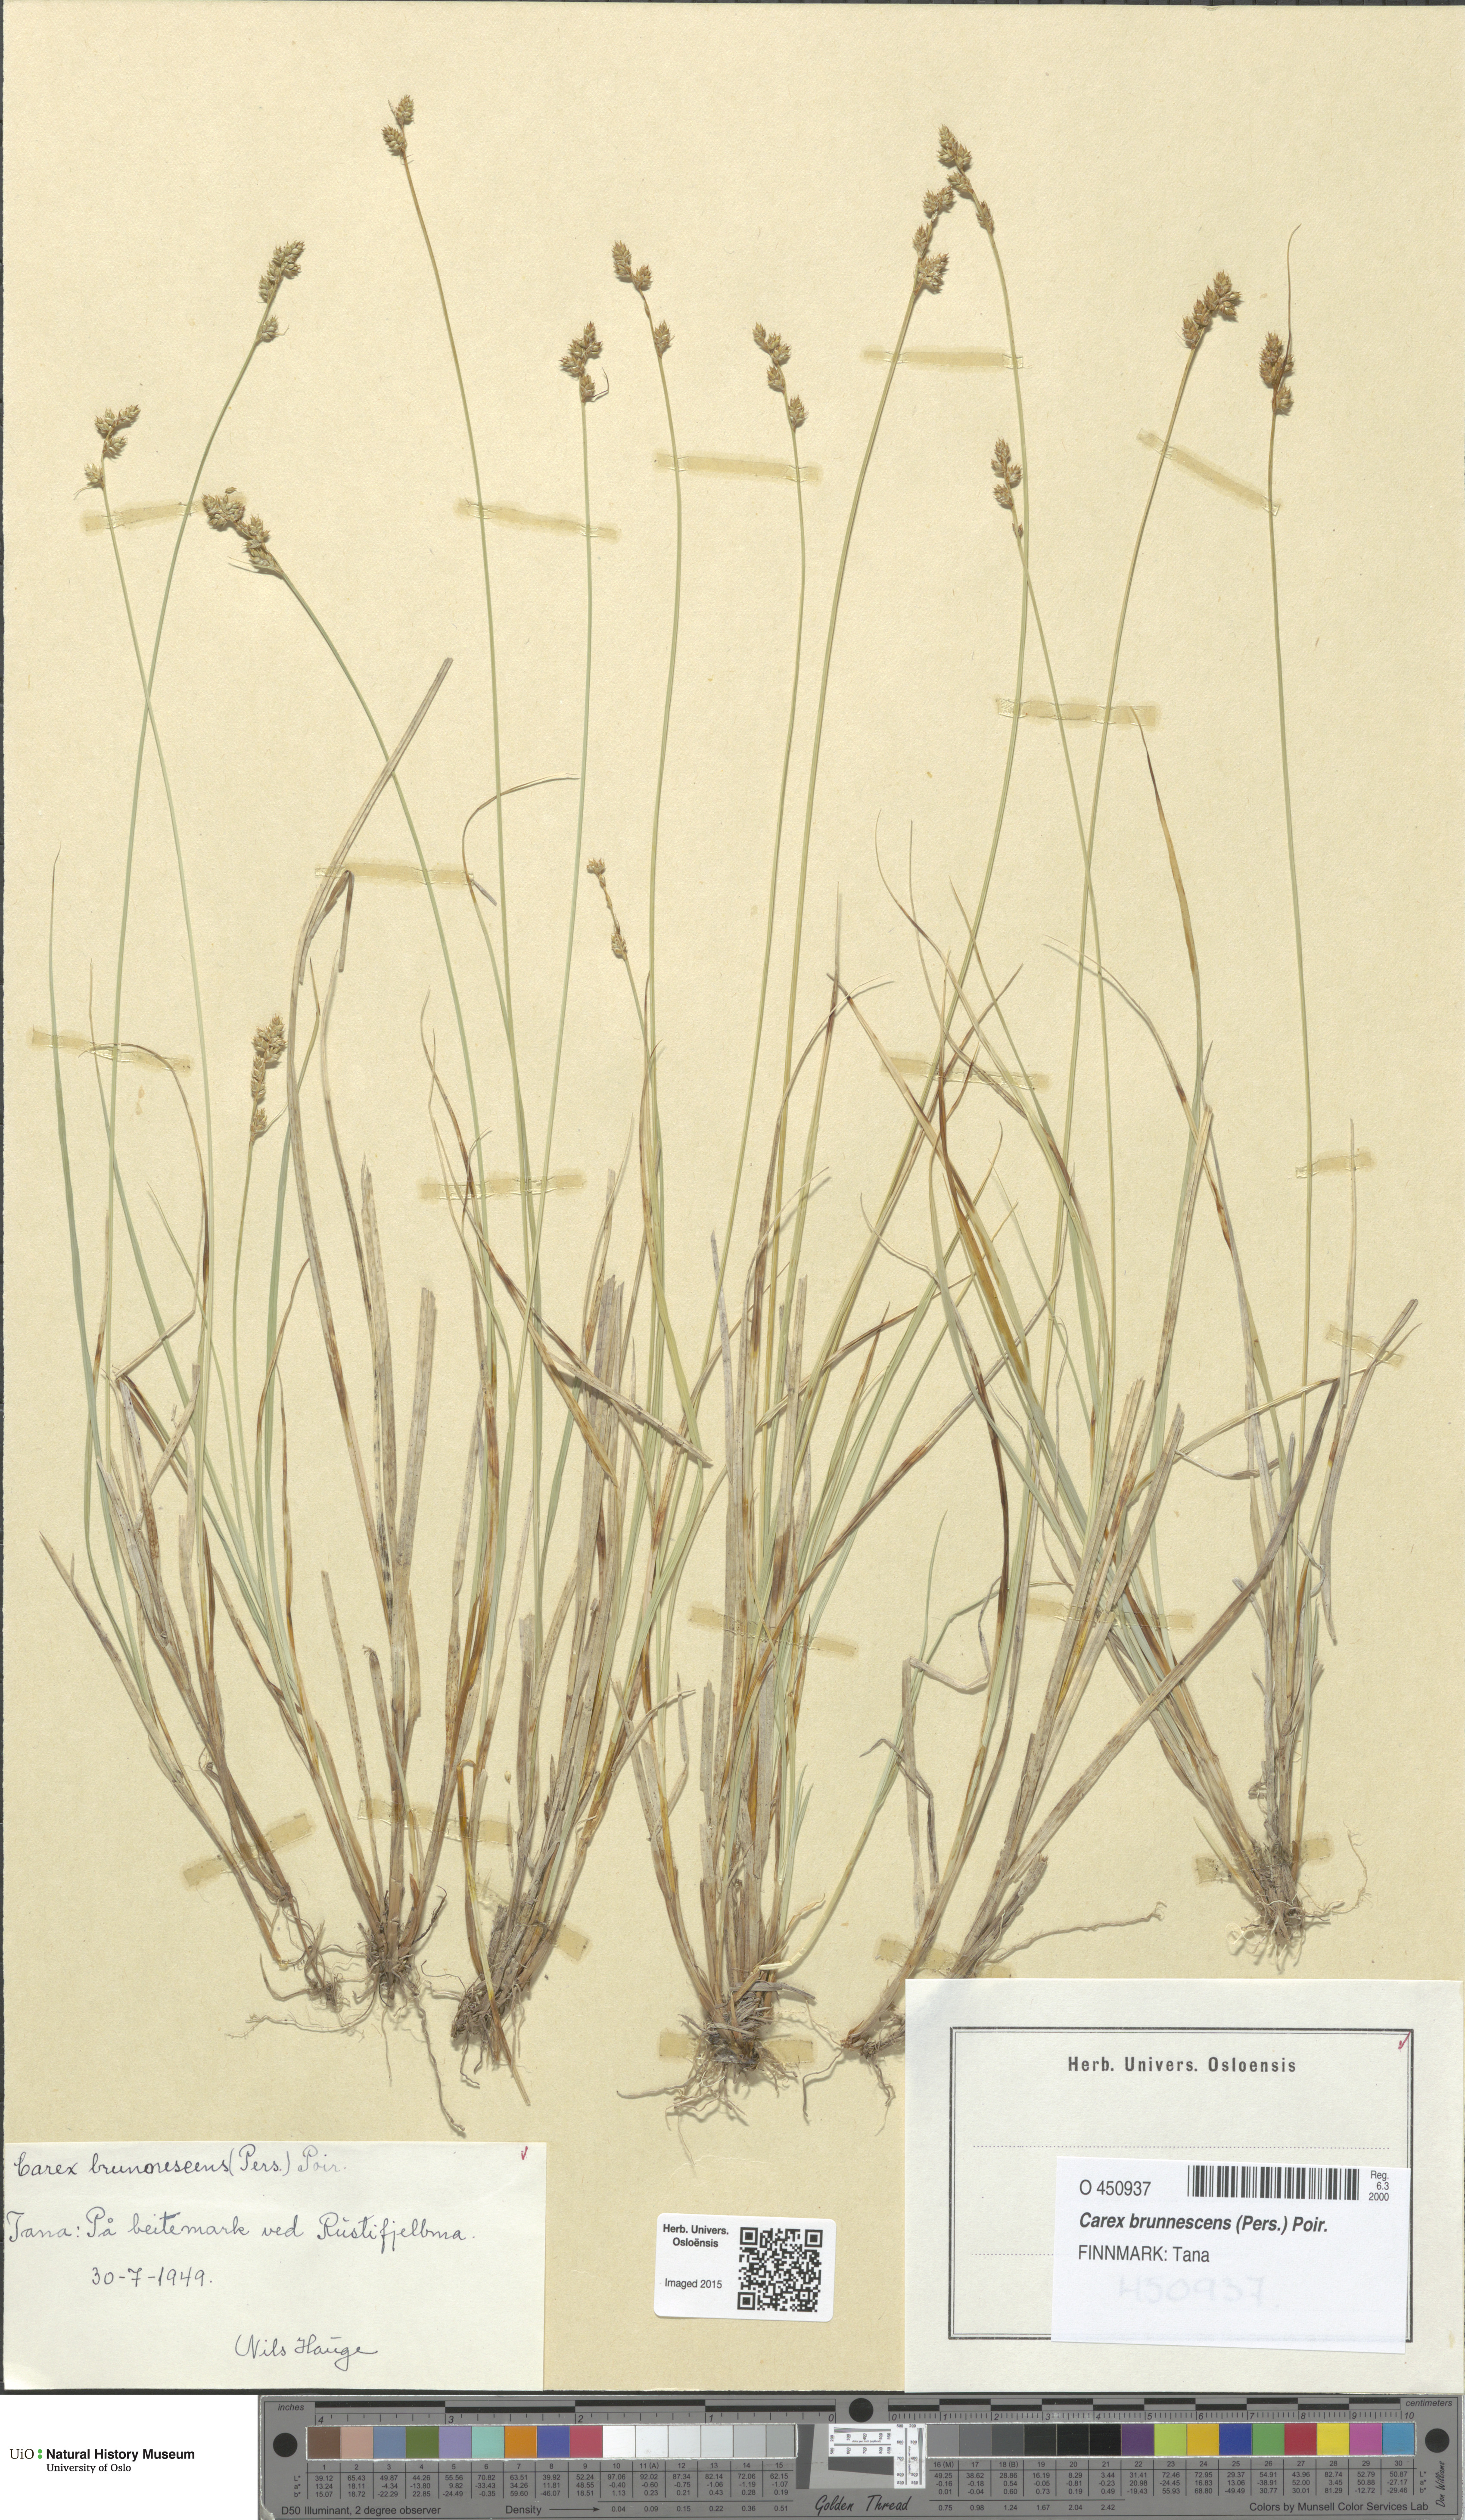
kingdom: Plantae
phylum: Tracheophyta
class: Liliopsida
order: Poales
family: Cyperaceae
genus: Carex
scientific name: Carex brunnescens
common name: Brown sedge
